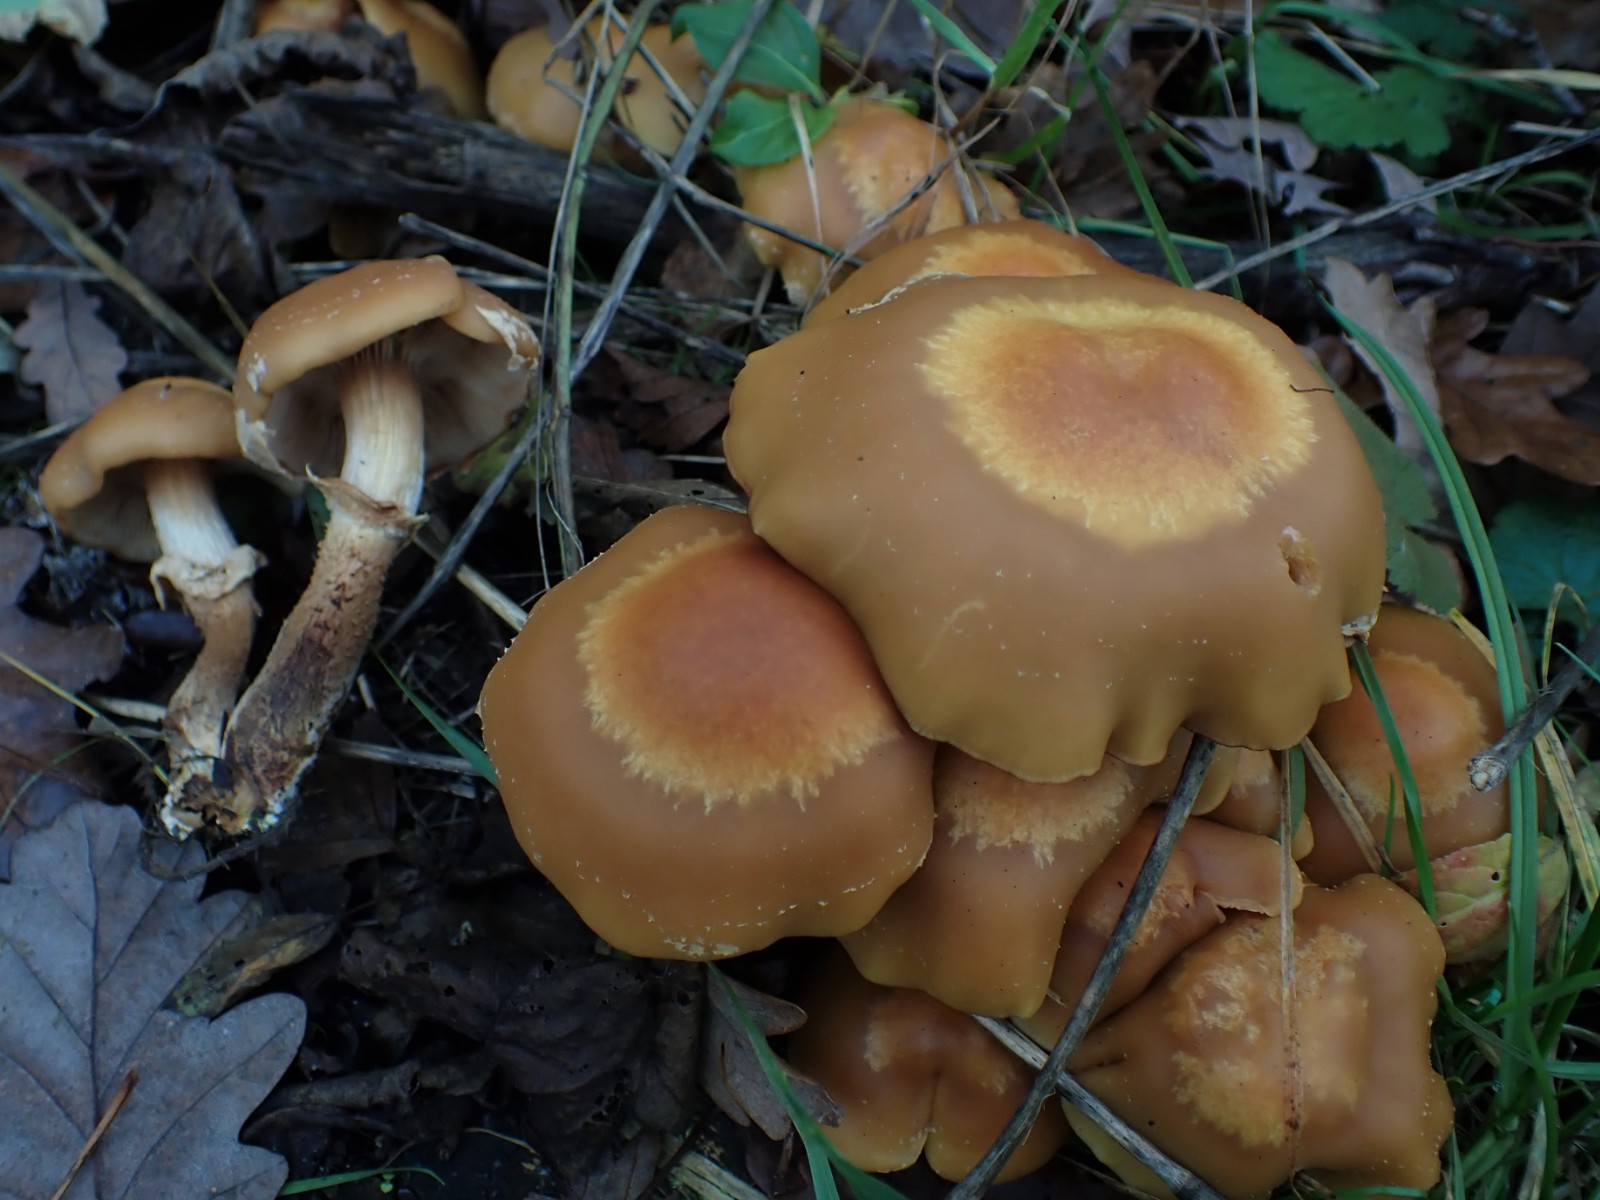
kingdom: Fungi
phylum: Basidiomycota
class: Agaricomycetes
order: Agaricales
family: Strophariaceae
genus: Kuehneromyces
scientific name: Kuehneromyces mutabilis
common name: foranderlig skælhat
